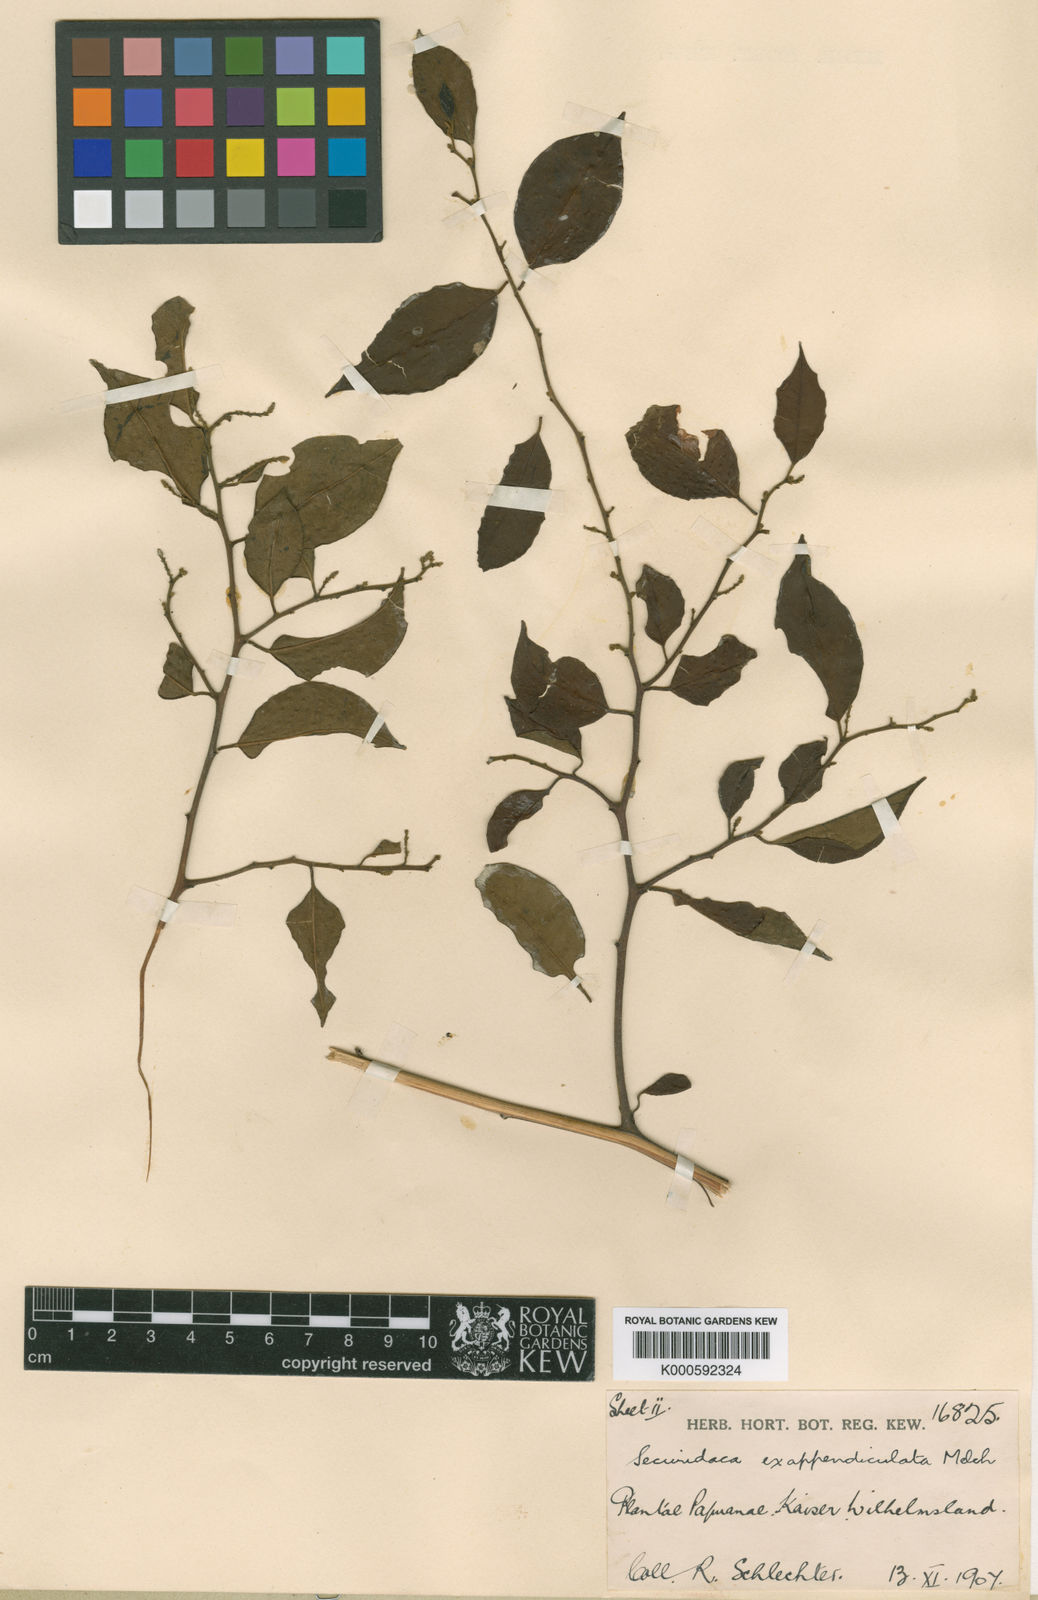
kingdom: Plantae
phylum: Tracheophyta
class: Magnoliopsida
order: Fabales
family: Polygalaceae
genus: Securidaca
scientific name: Securidaca philippinensis
